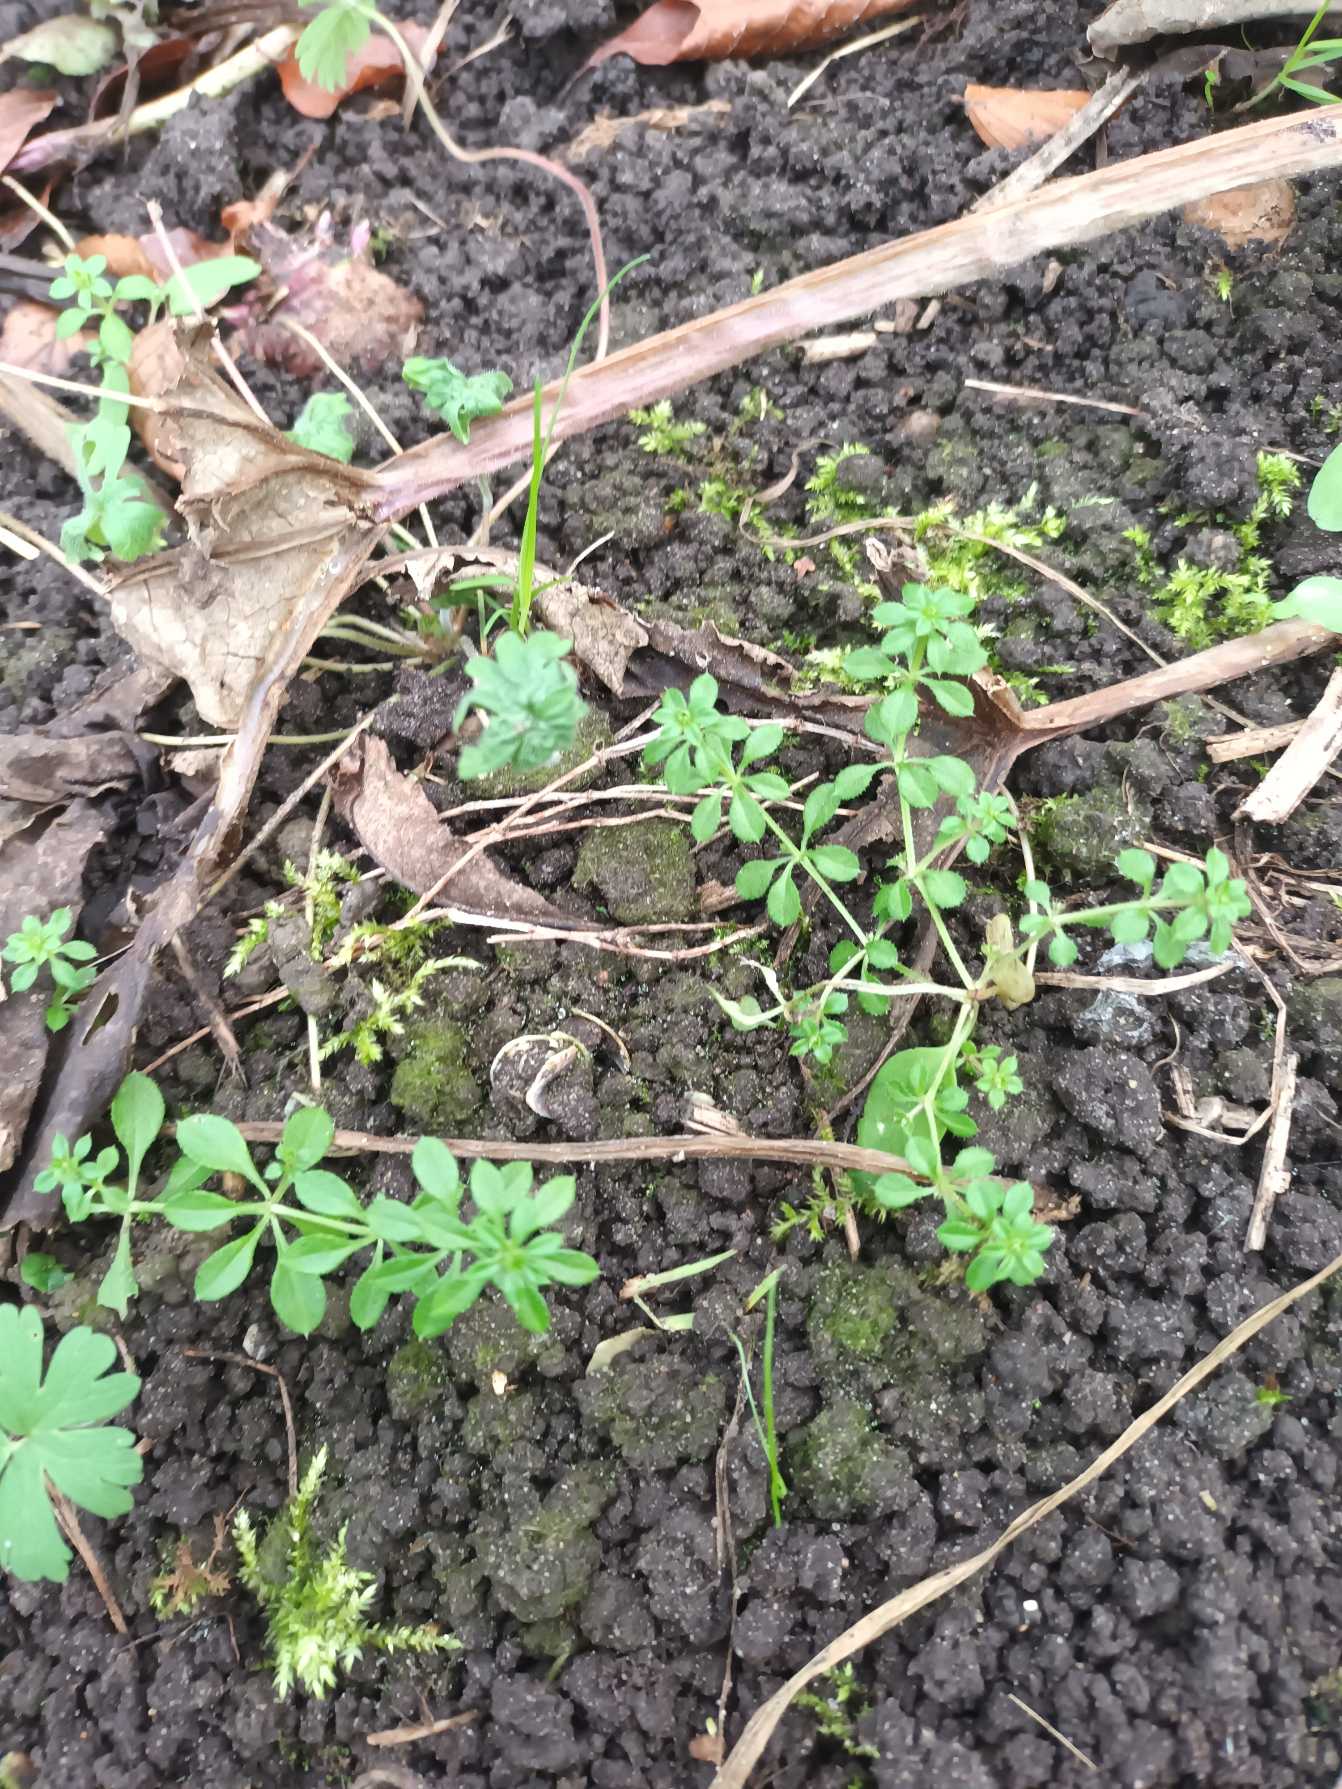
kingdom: Plantae
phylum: Tracheophyta
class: Magnoliopsida
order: Gentianales
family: Rubiaceae
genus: Galium
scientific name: Galium aparine
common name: Burre-snerre
